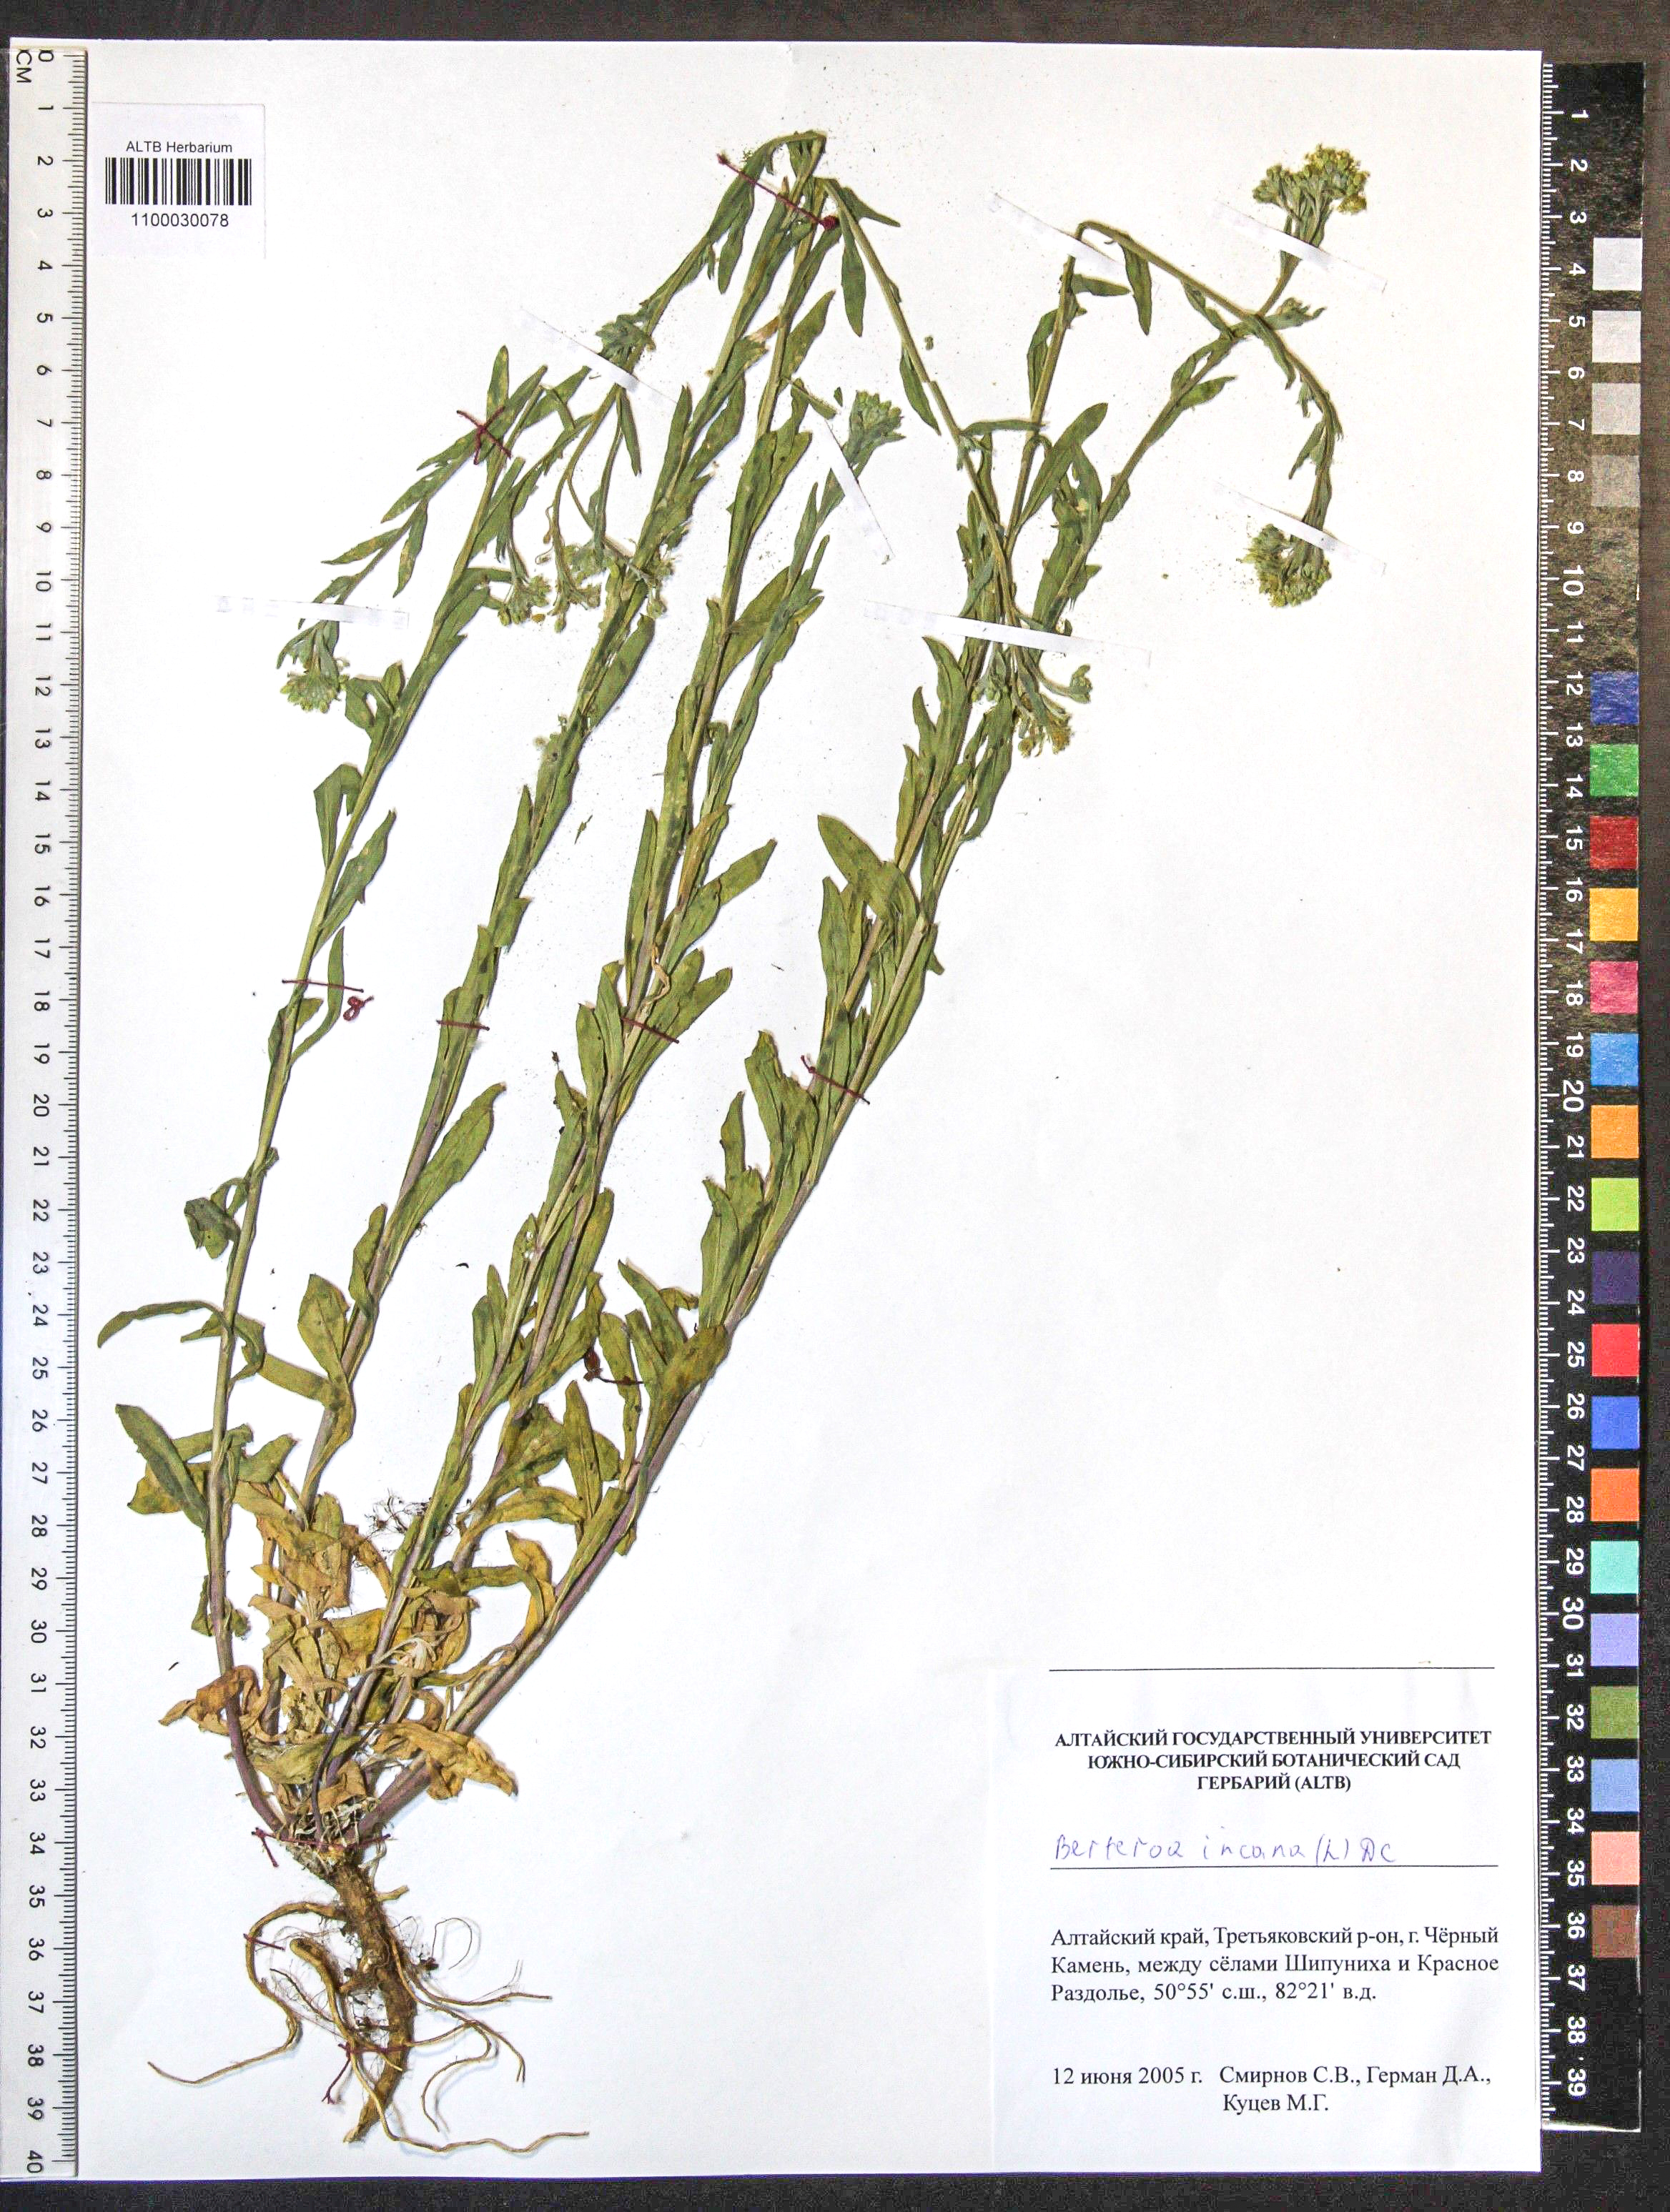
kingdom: Plantae
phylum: Tracheophyta
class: Magnoliopsida
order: Brassicales
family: Brassicaceae
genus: Berteroa
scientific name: Berteroa incana
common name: Hoary alison
